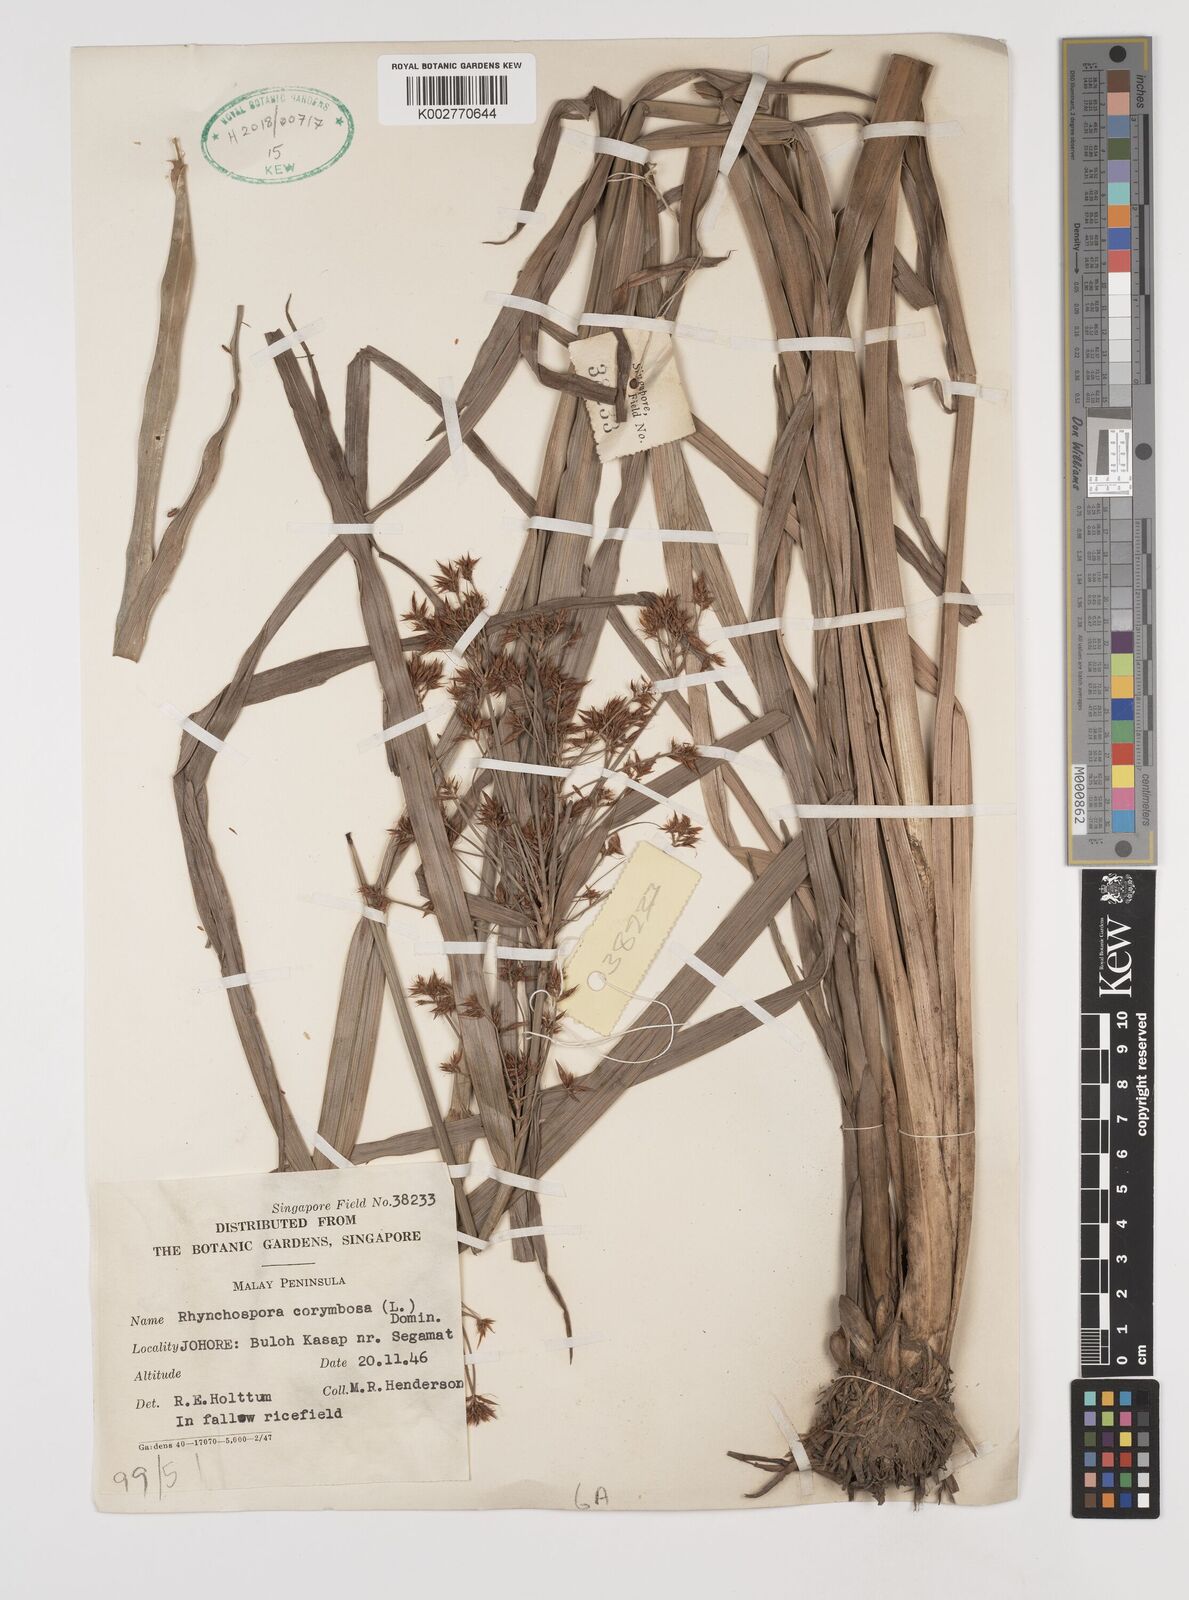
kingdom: Plantae
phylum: Tracheophyta
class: Liliopsida
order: Poales
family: Cyperaceae
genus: Rhynchospora
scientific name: Rhynchospora corymbosa
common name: Golden beak sedge
